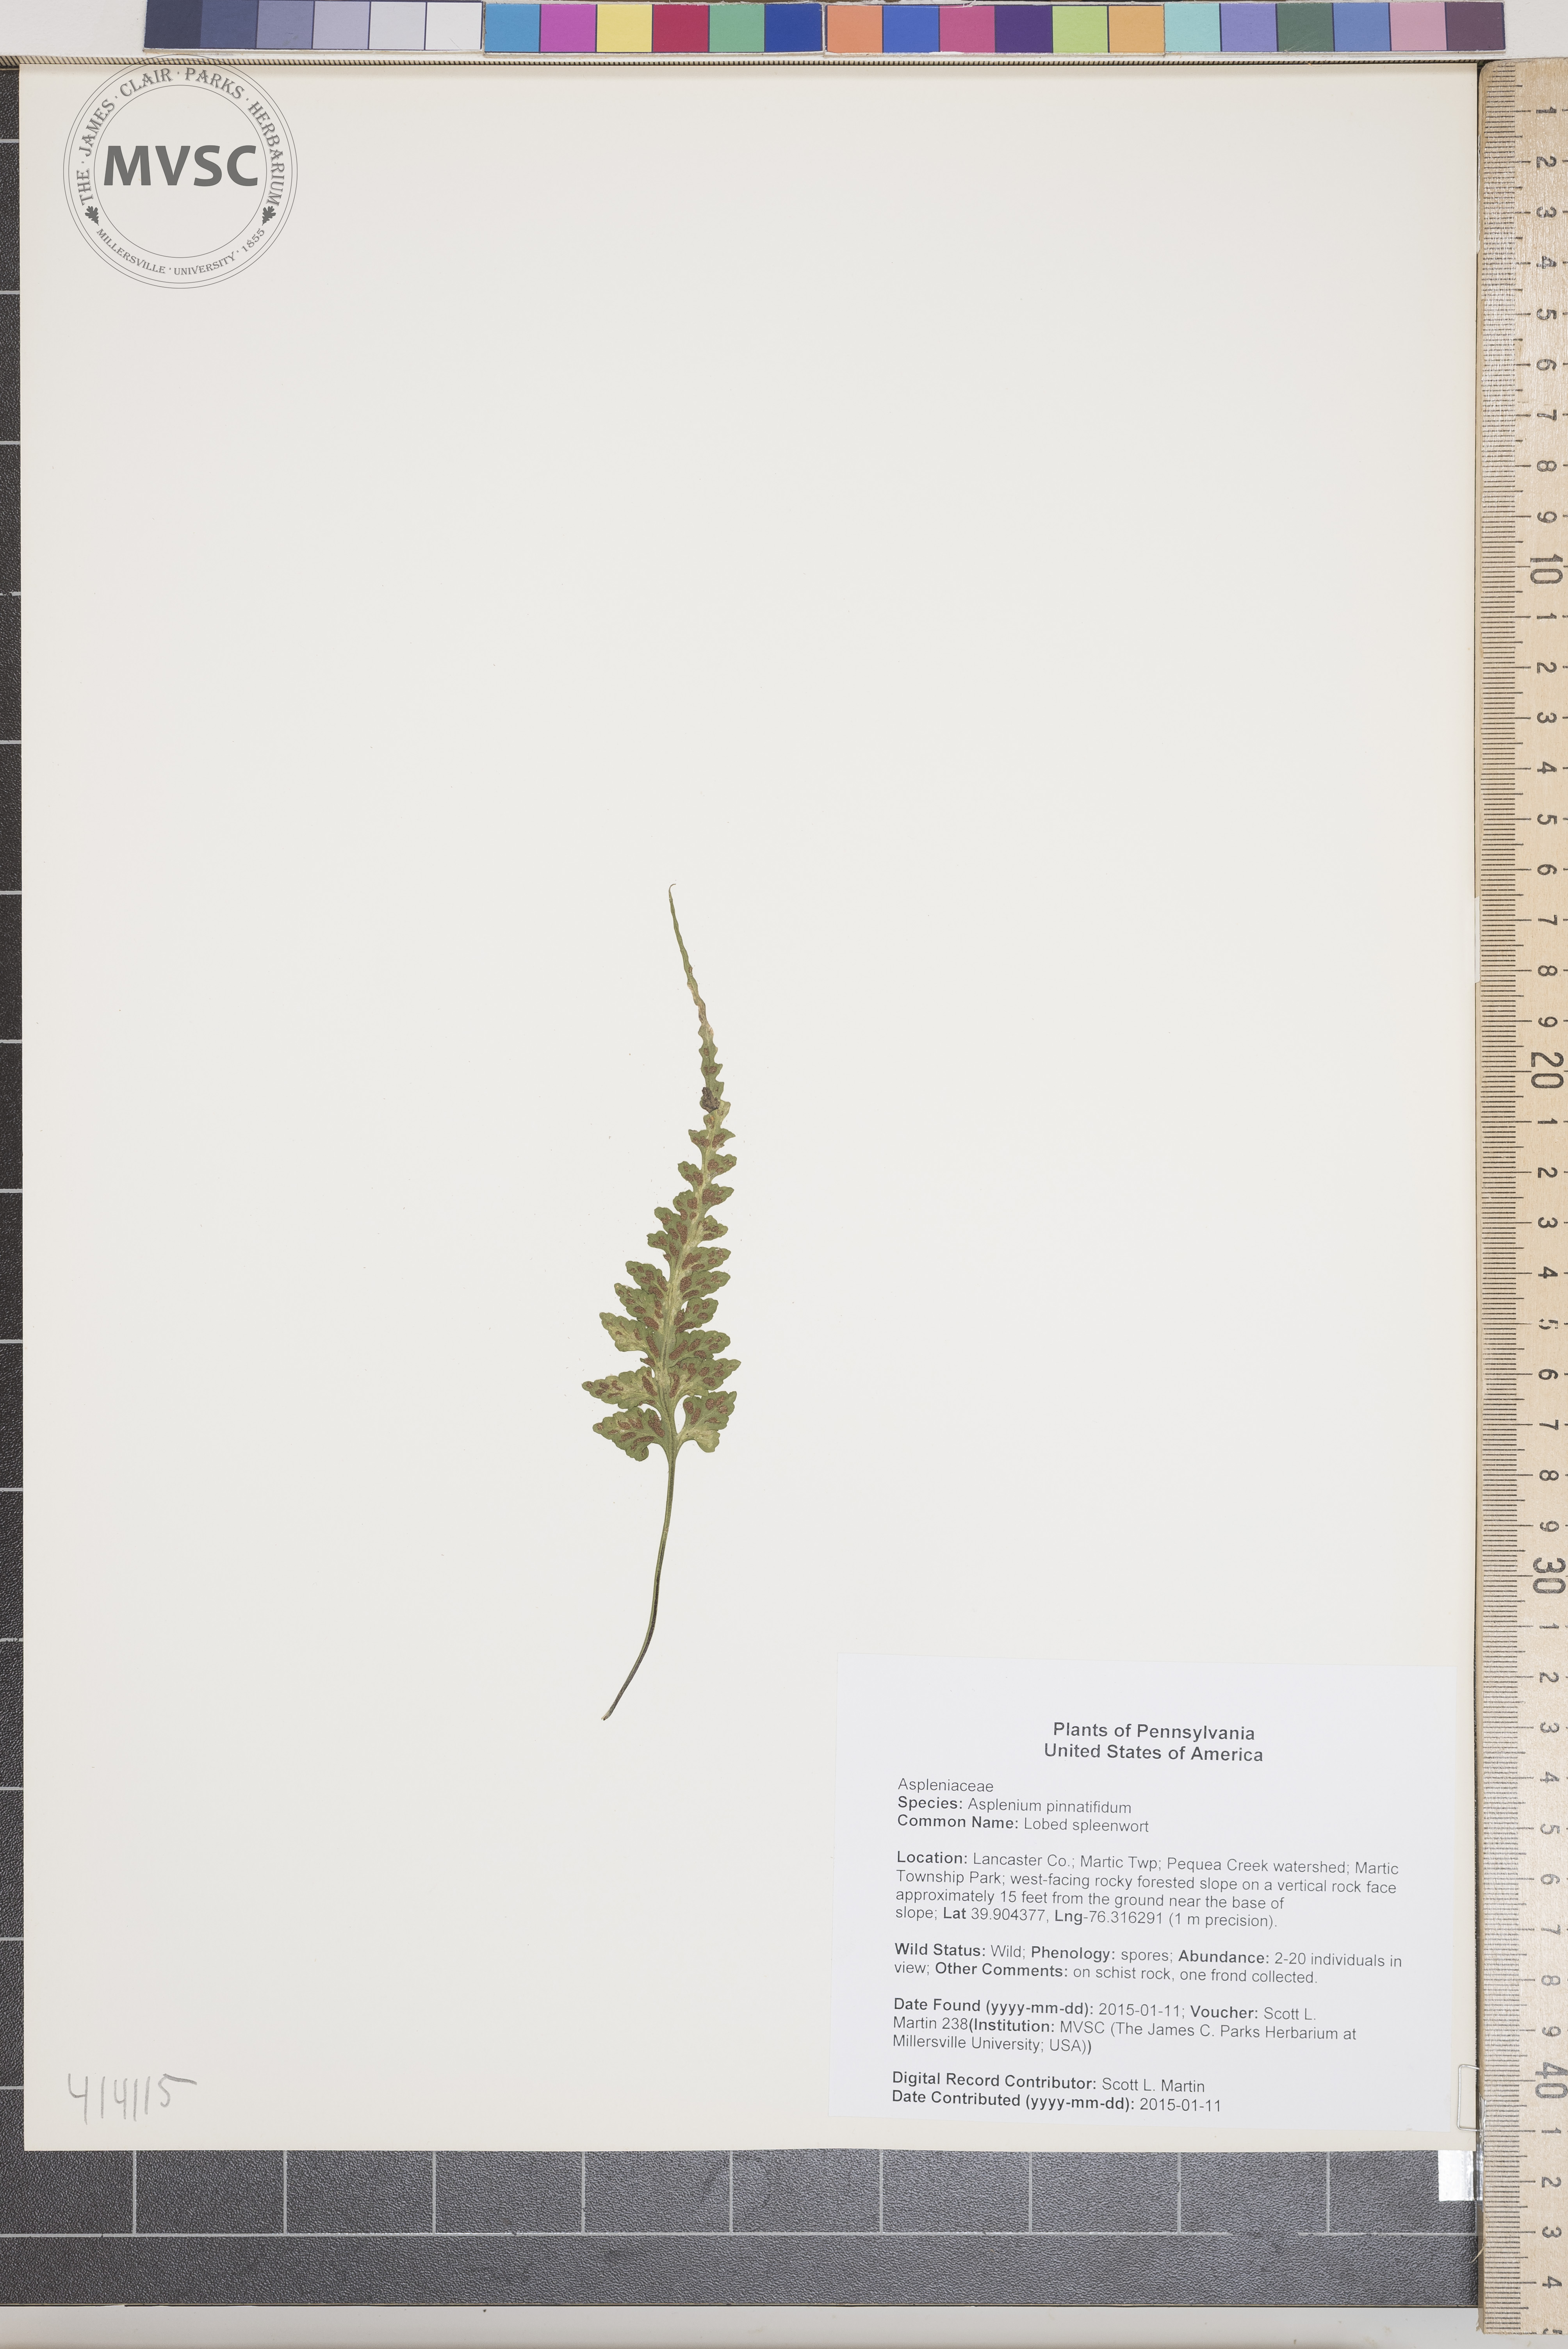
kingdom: Plantae
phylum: Tracheophyta
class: Polypodiopsida
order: Polypodiales
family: Aspleniaceae
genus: Asplenium
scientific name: Asplenium pinnatifidum
